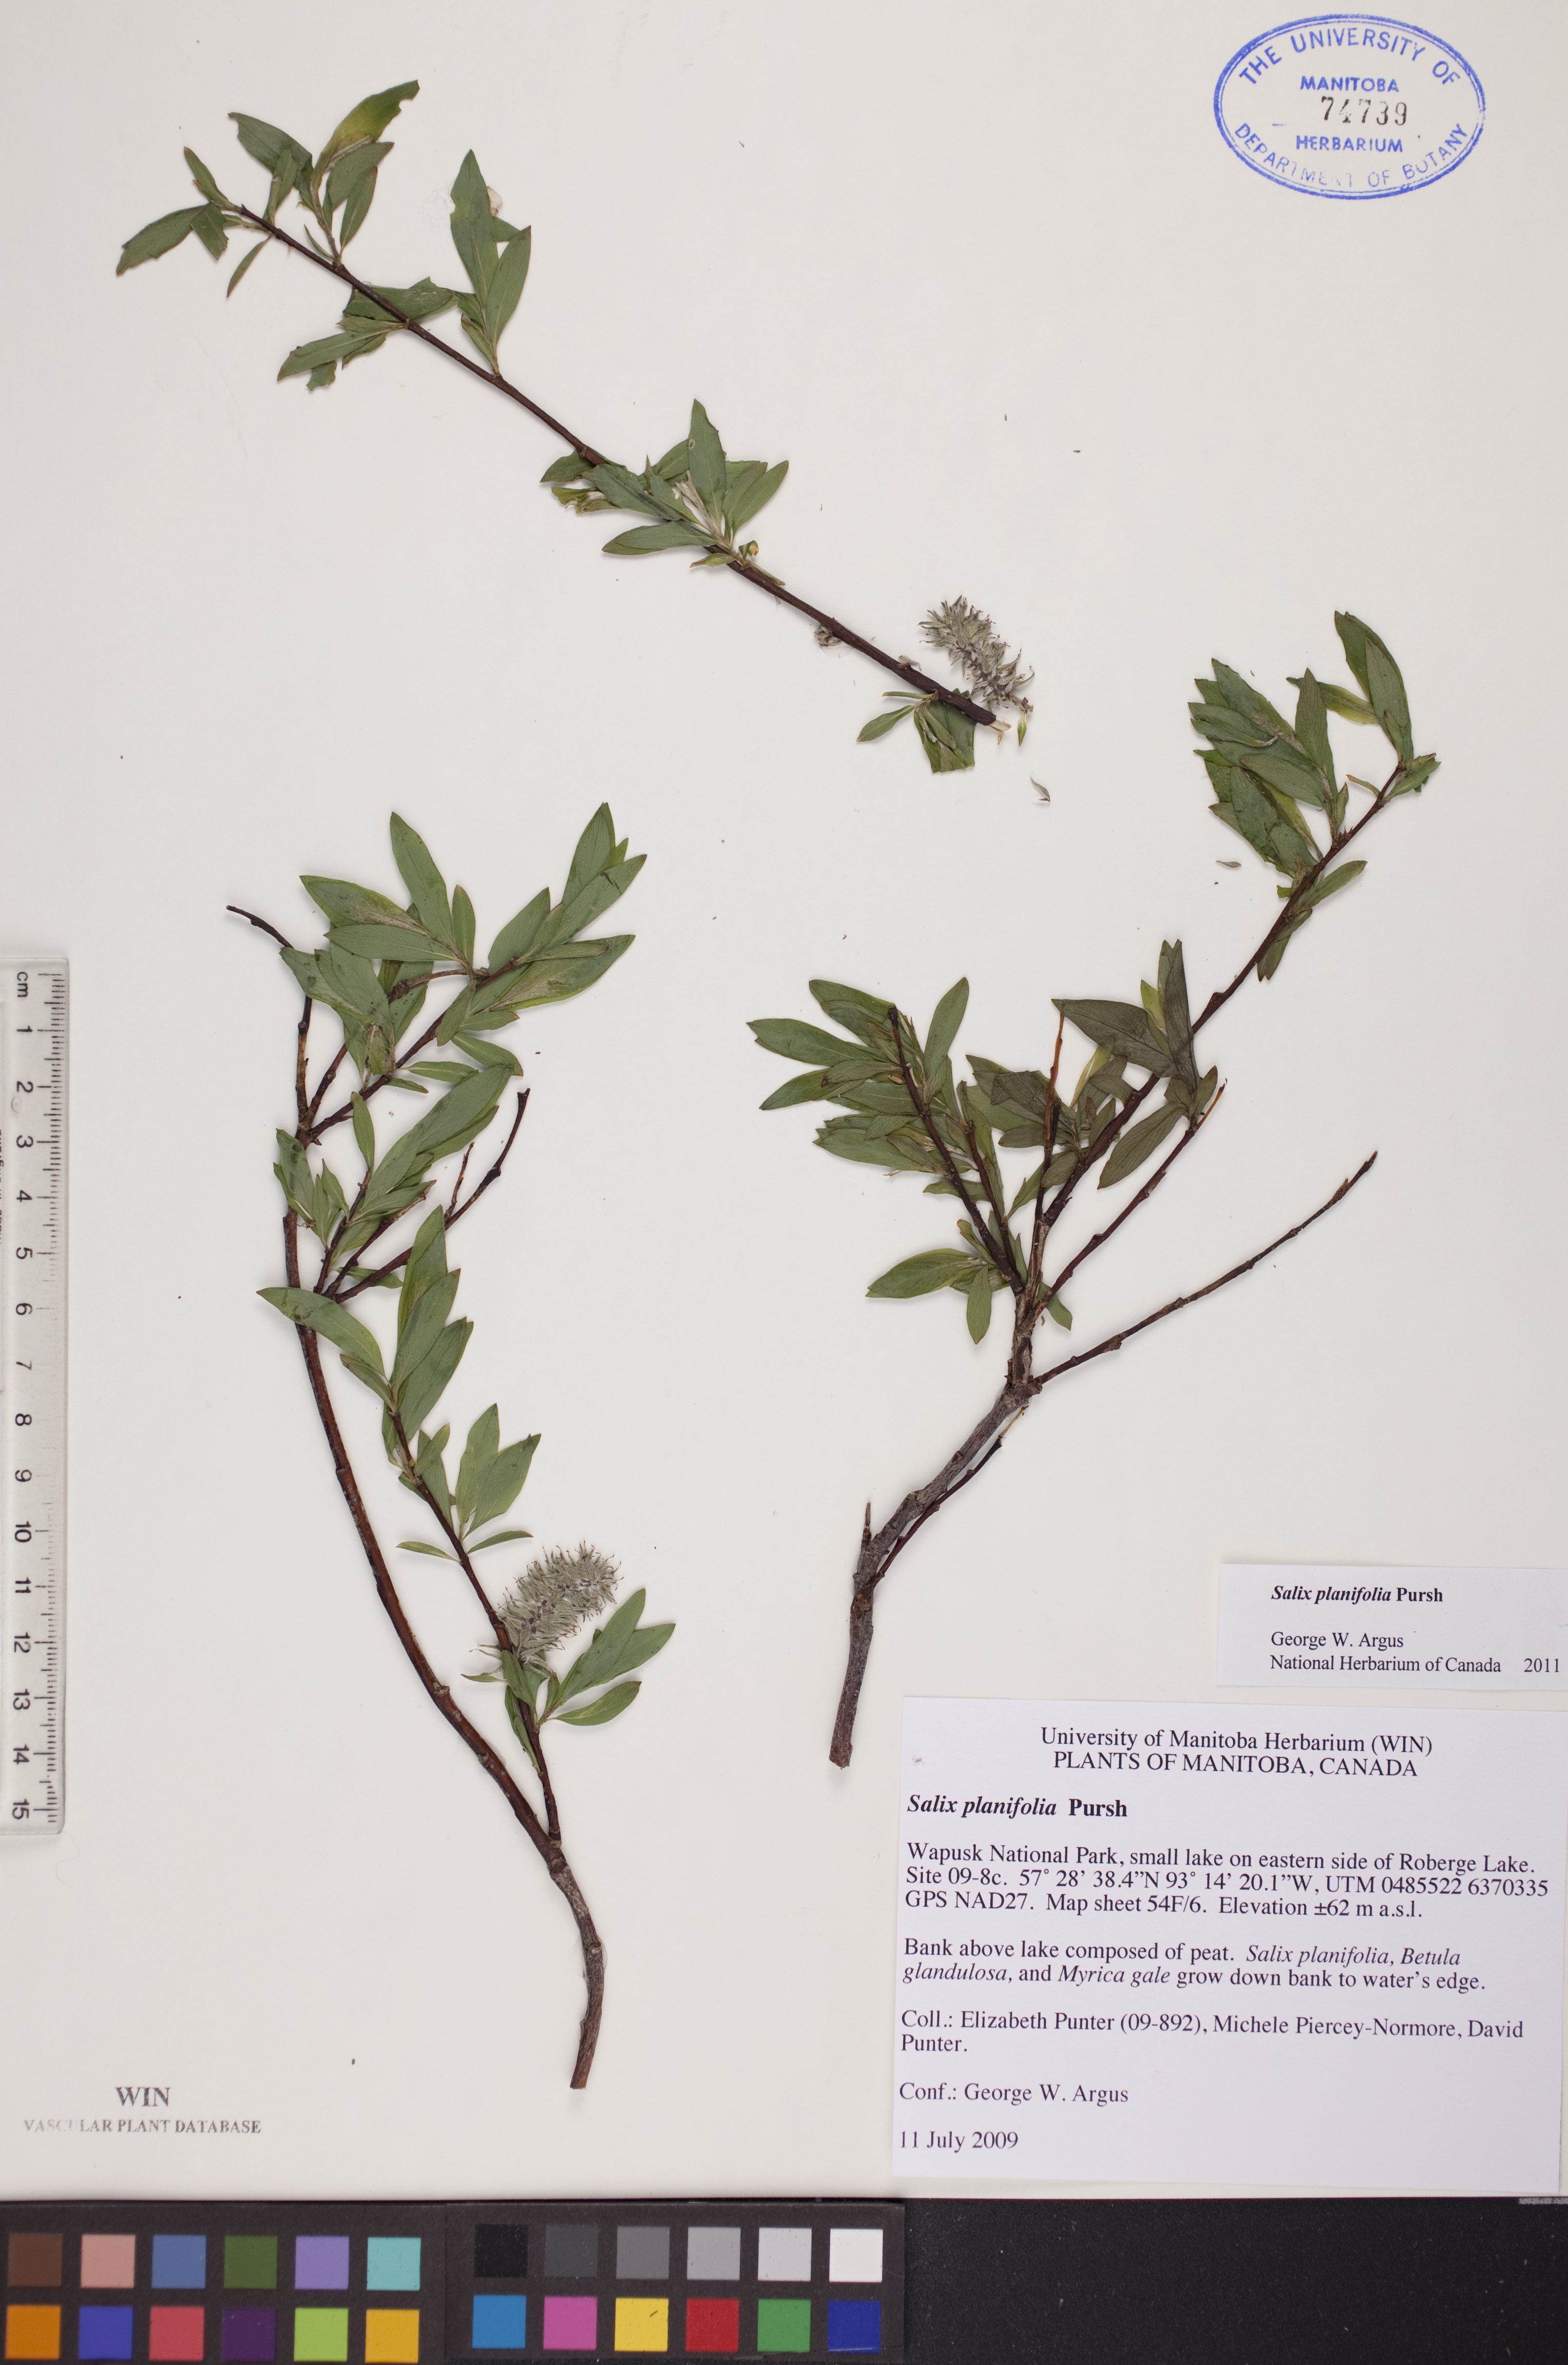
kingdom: Plantae
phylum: Tracheophyta
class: Magnoliopsida
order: Malpighiales
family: Salicaceae
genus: Salix
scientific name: Salix planifolia
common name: Mountain willow
